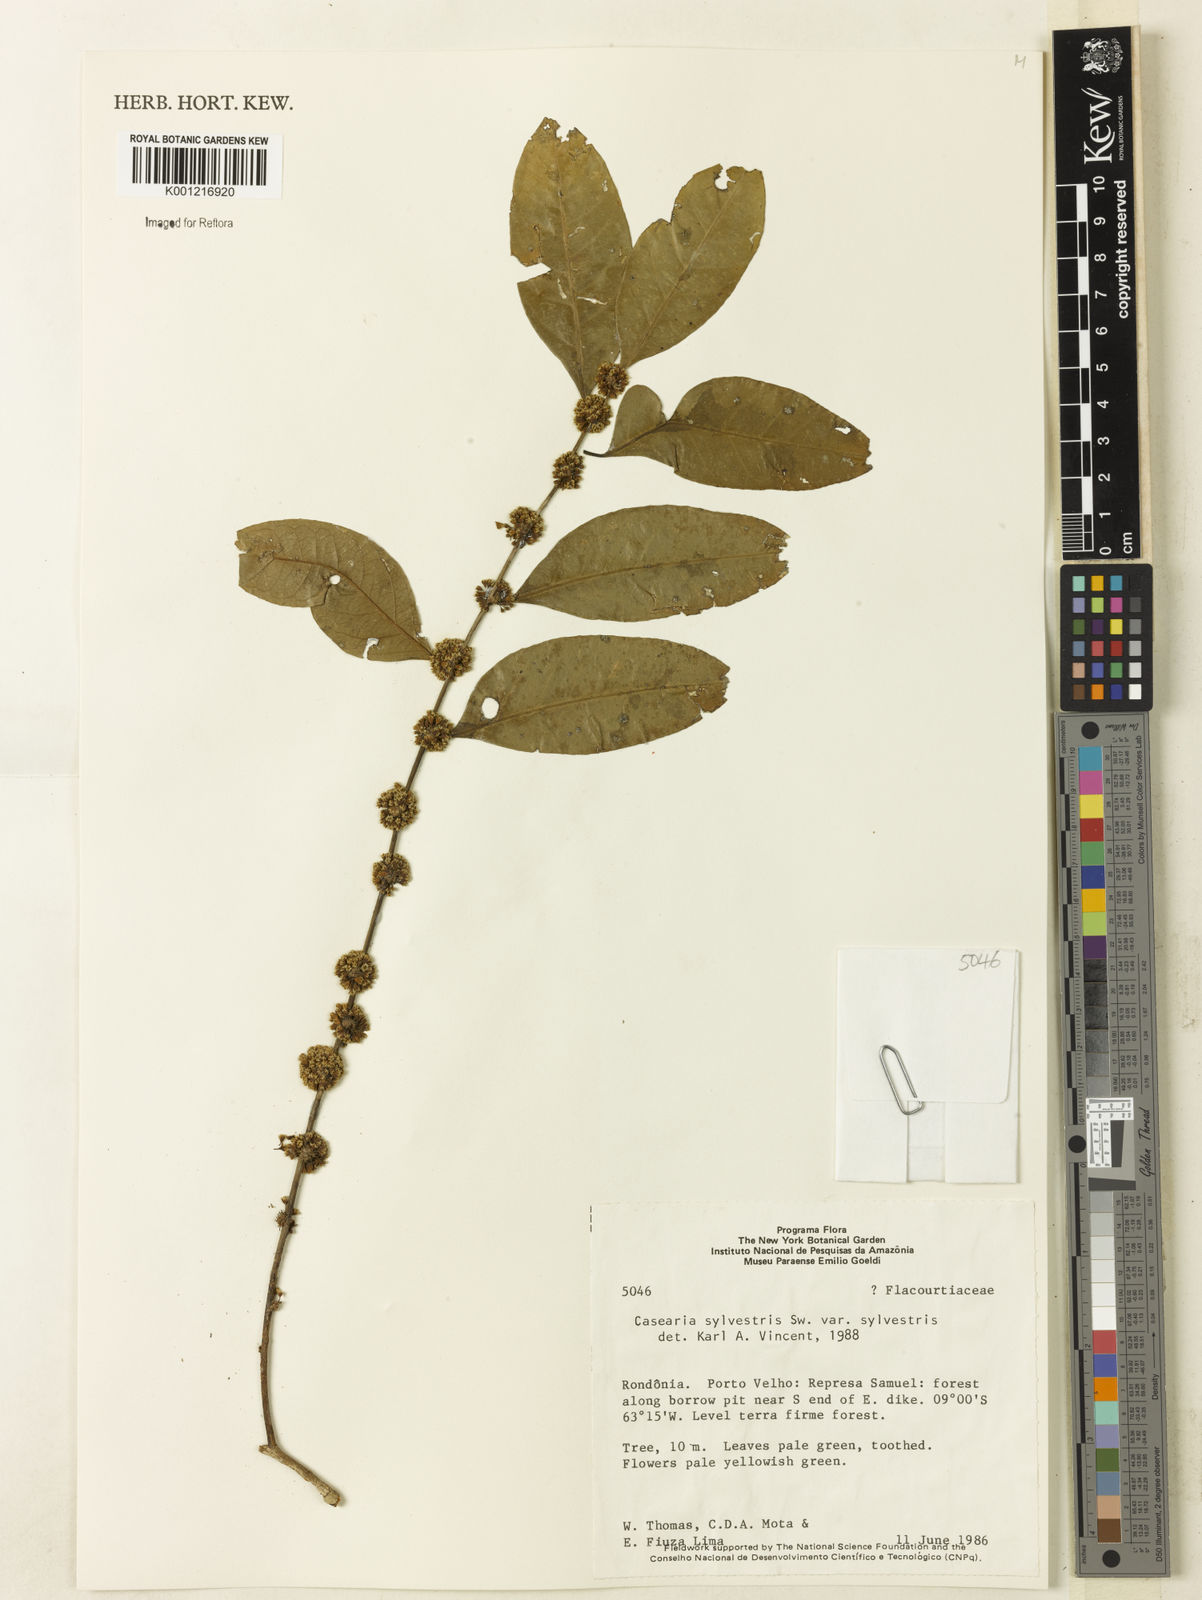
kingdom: Plantae
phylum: Tracheophyta
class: Magnoliopsida
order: Malpighiales
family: Salicaceae
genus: Casearia
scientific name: Casearia sylvestris
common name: Wild sage
